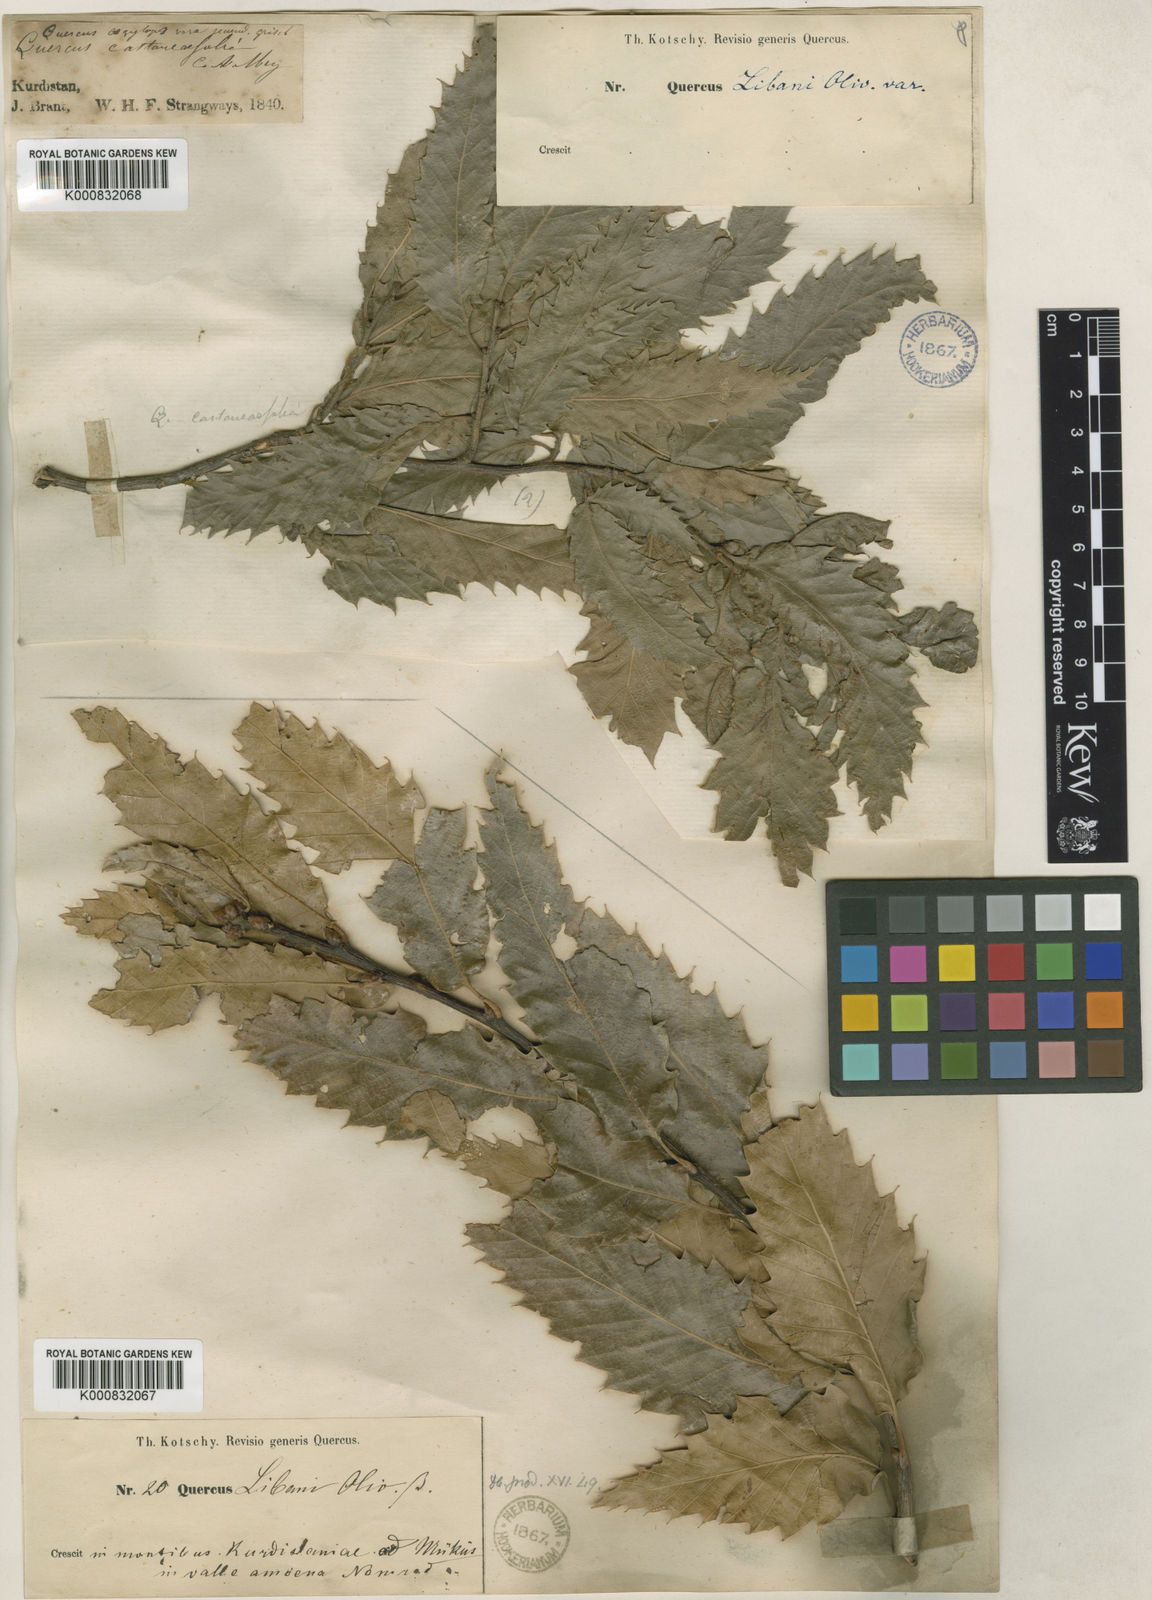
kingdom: Plantae
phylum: Tracheophyta
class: Magnoliopsida
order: Fagales
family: Fagaceae
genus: Quercus
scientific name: Quercus libani
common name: Lebanon oak
